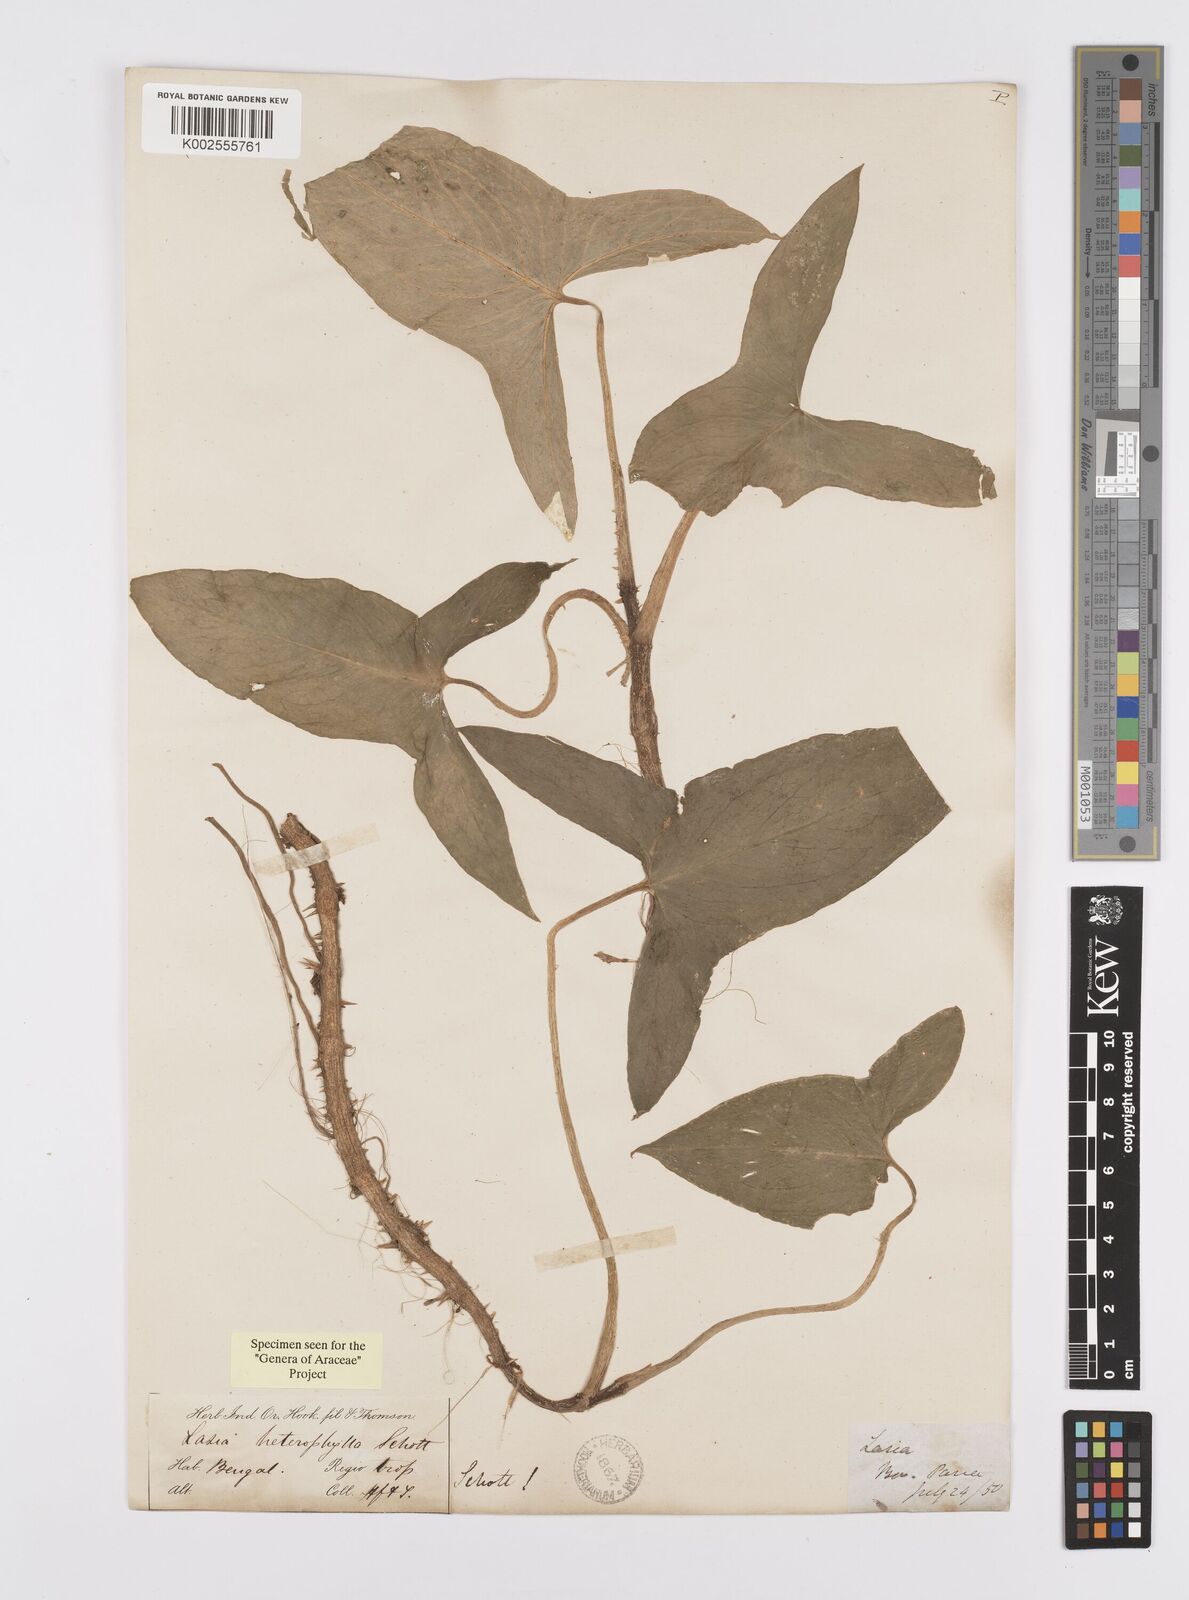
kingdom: Plantae
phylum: Tracheophyta
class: Liliopsida
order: Alismatales
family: Araceae
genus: Lasia
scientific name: Lasia spinosa
